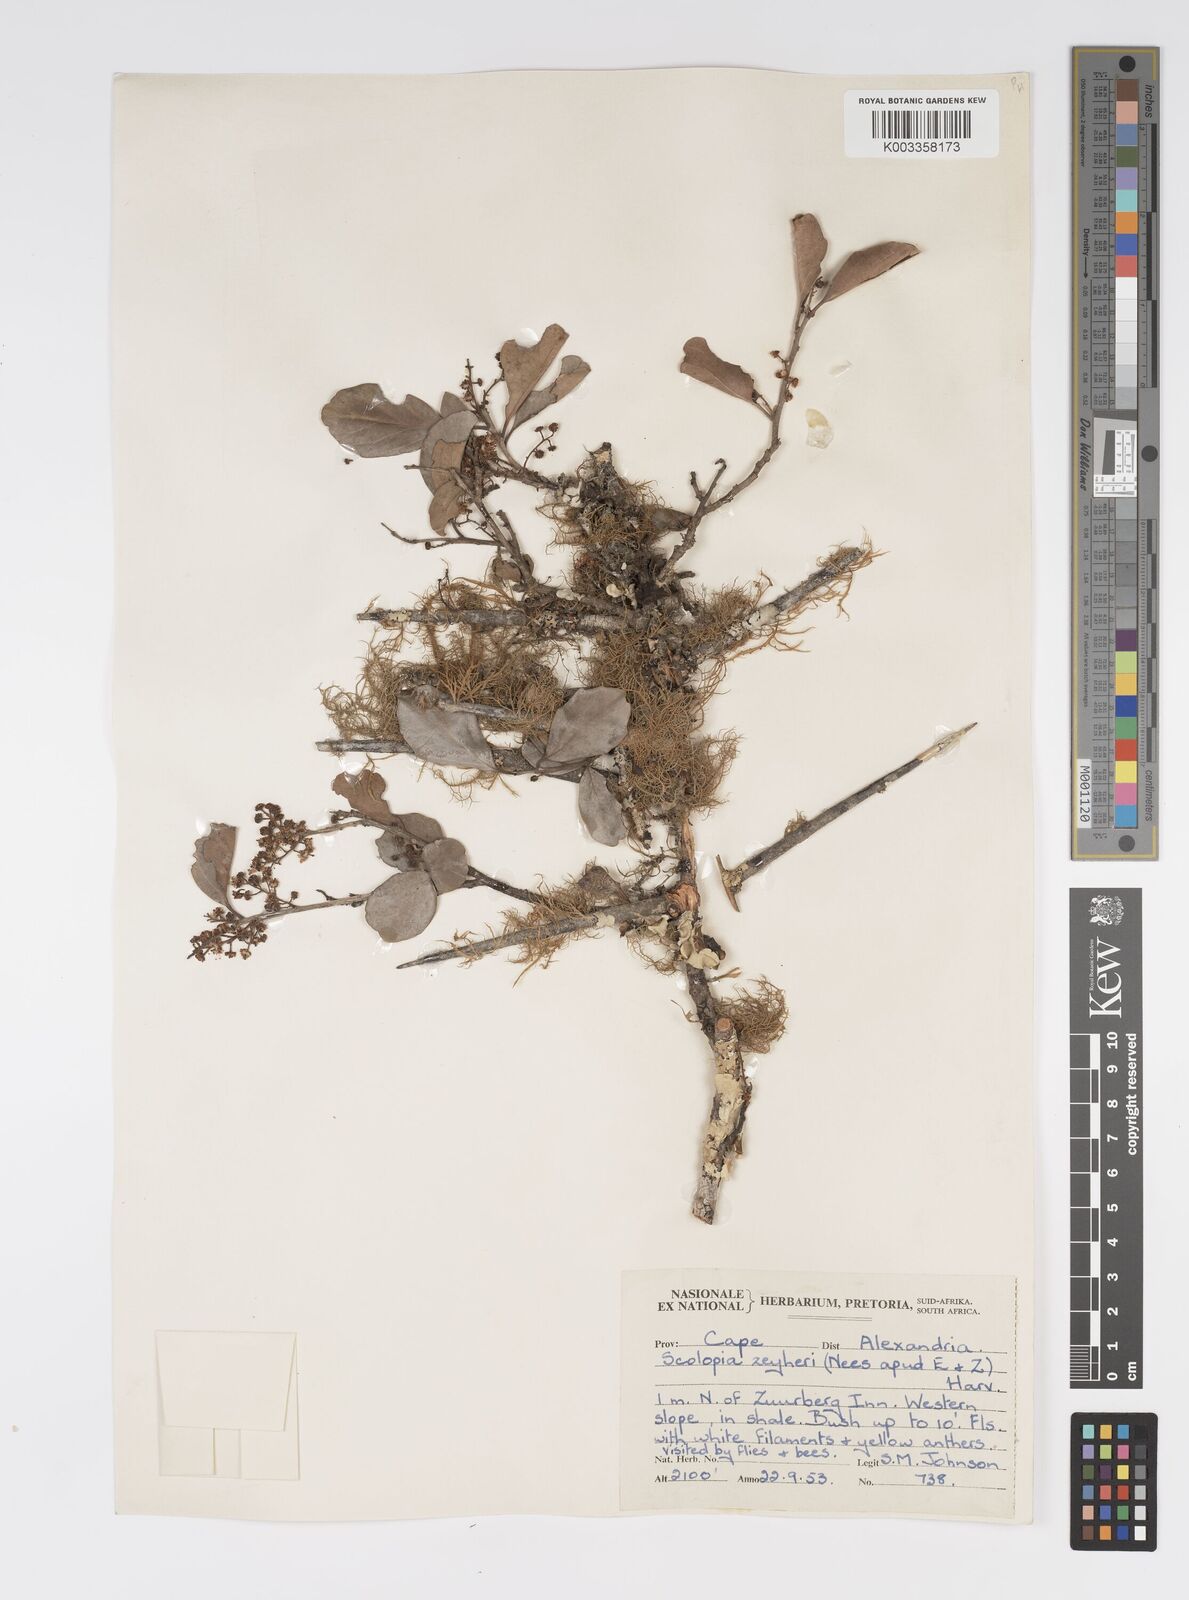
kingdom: Plantae
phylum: Tracheophyta
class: Magnoliopsida
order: Malpighiales
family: Salicaceae
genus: Scolopia
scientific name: Scolopia zeyheri
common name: Thorn pear
